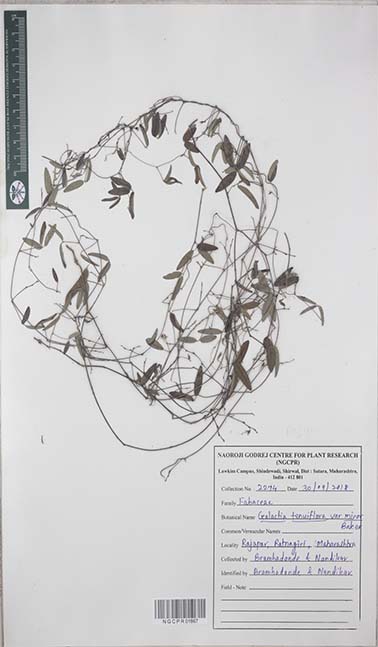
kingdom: Plantae
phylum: Tracheophyta
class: Magnoliopsida
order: Fabales
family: Fabaceae
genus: Galactia
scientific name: Galactia striata
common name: Florida hammock milkpea
